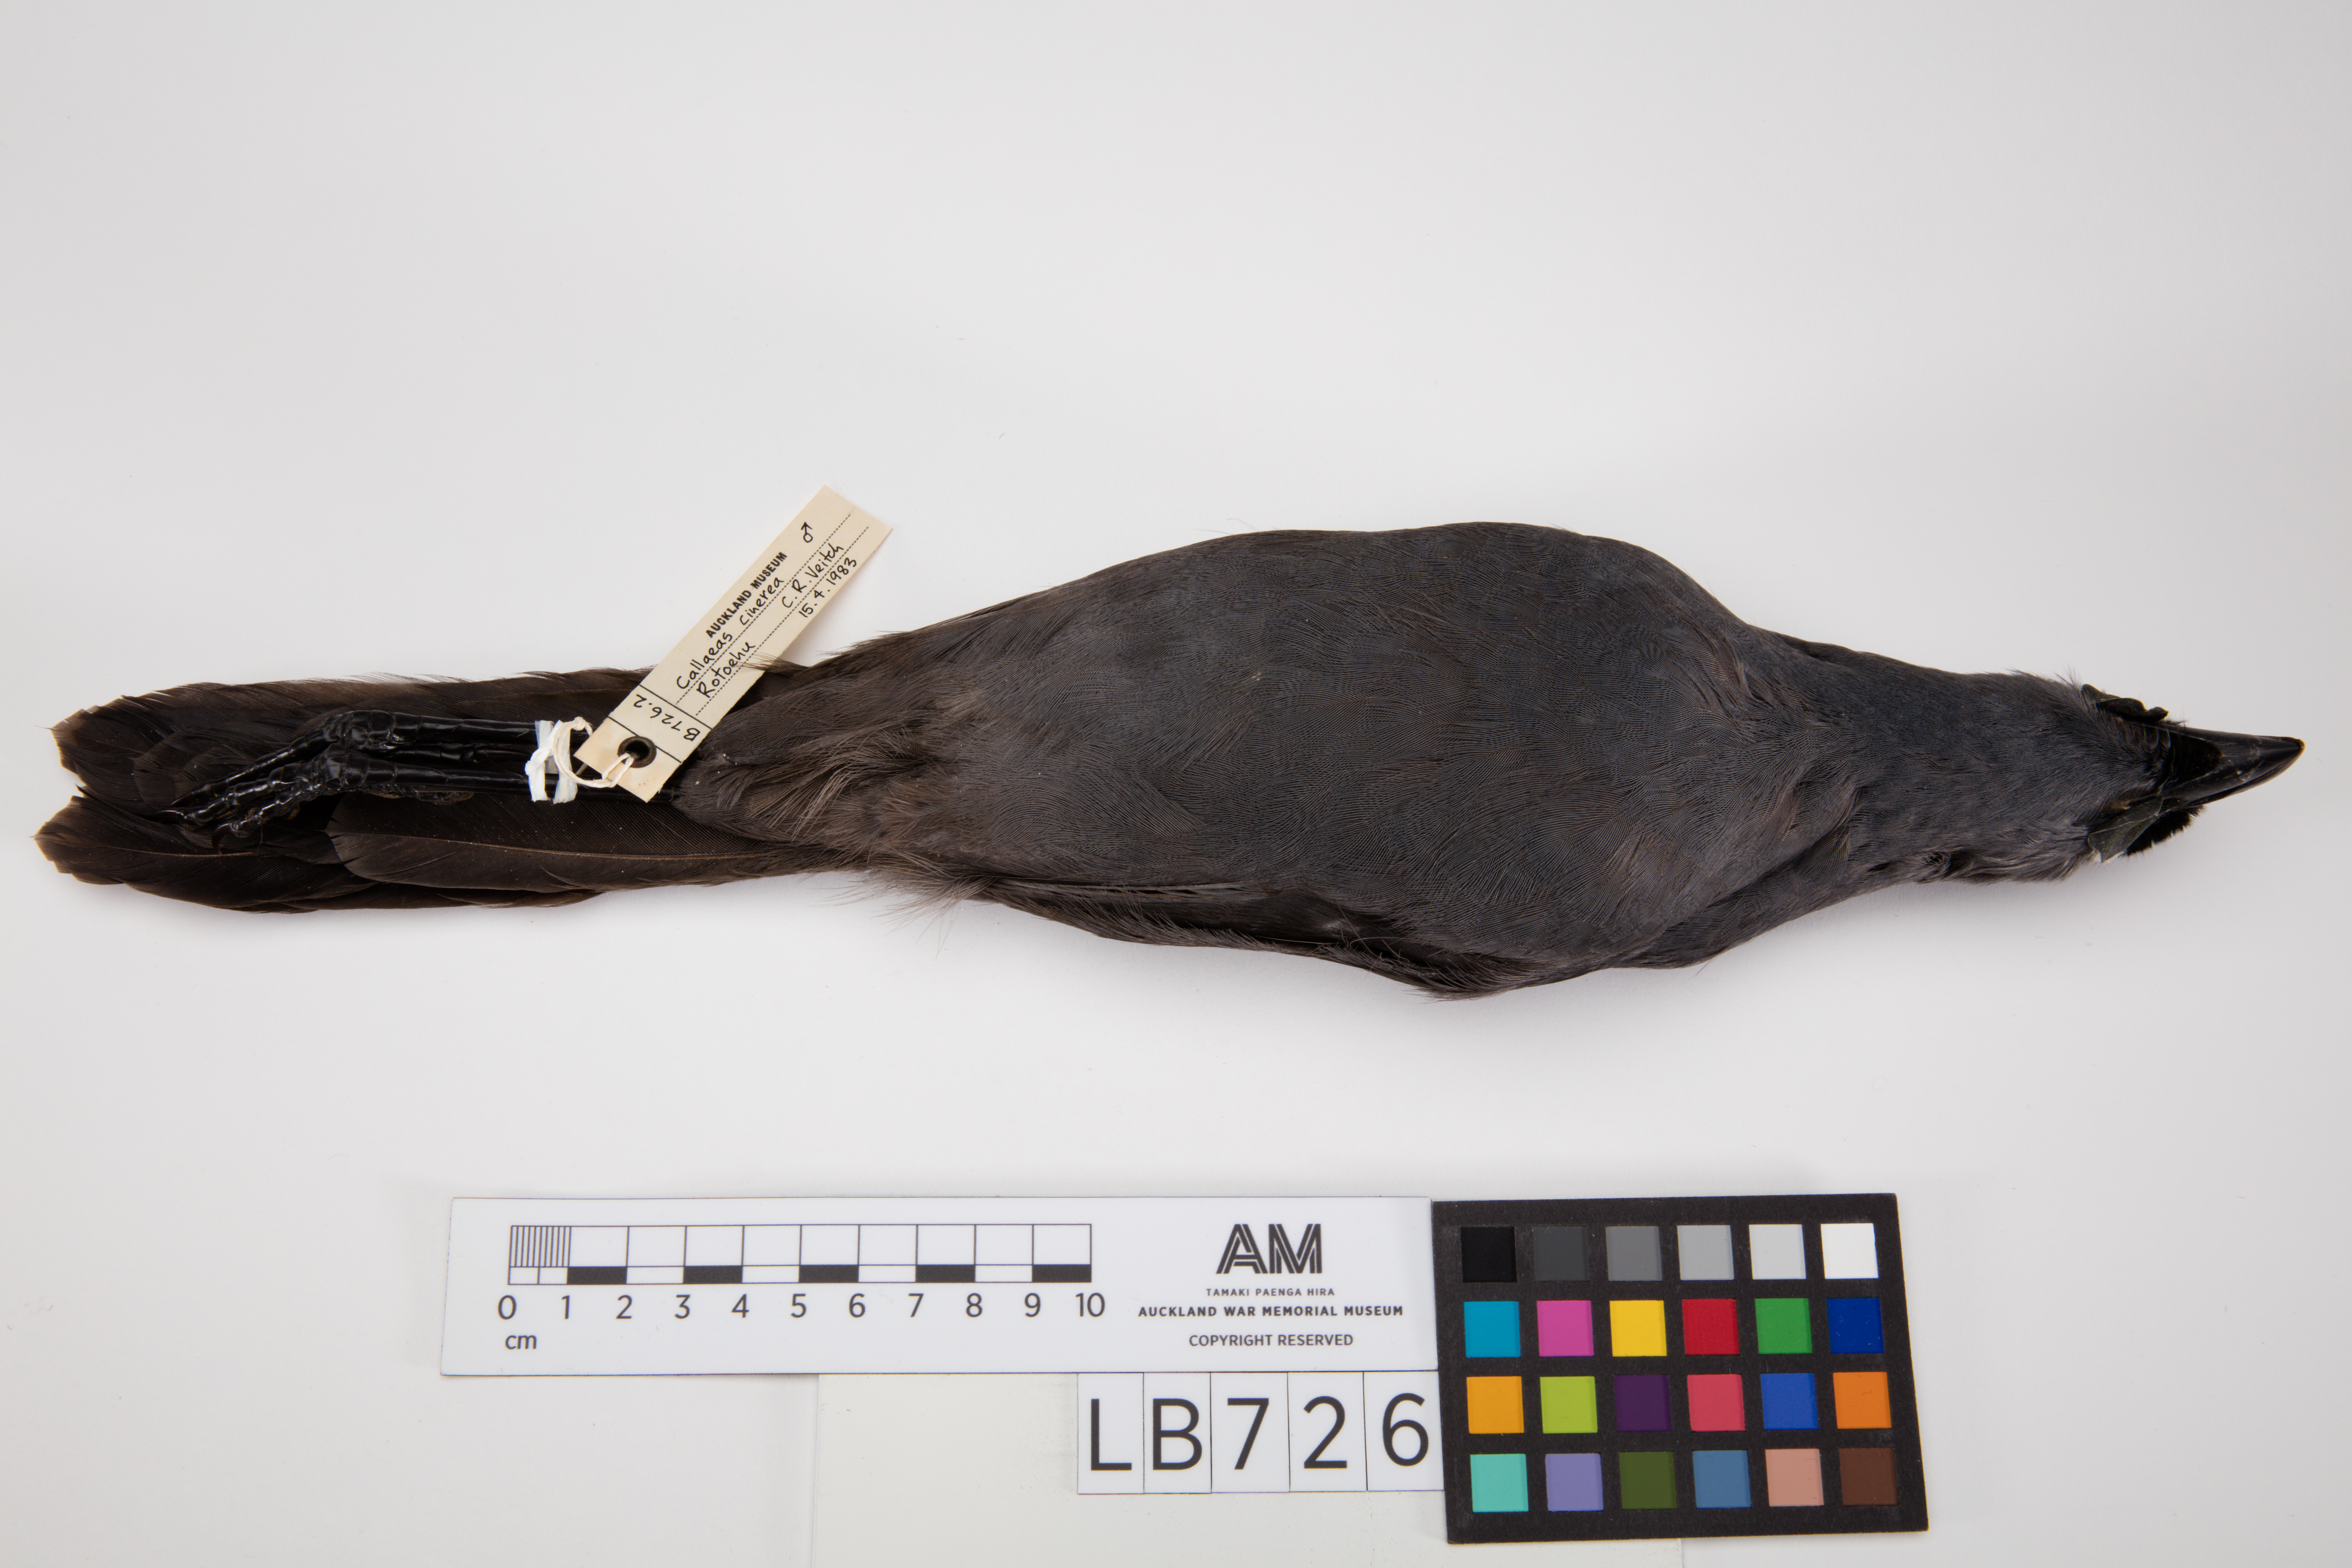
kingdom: Animalia
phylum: Chordata
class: Aves
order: Passeriformes
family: Callaeatidae
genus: Callaeas
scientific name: Callaeas cinereus
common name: South island kokako
